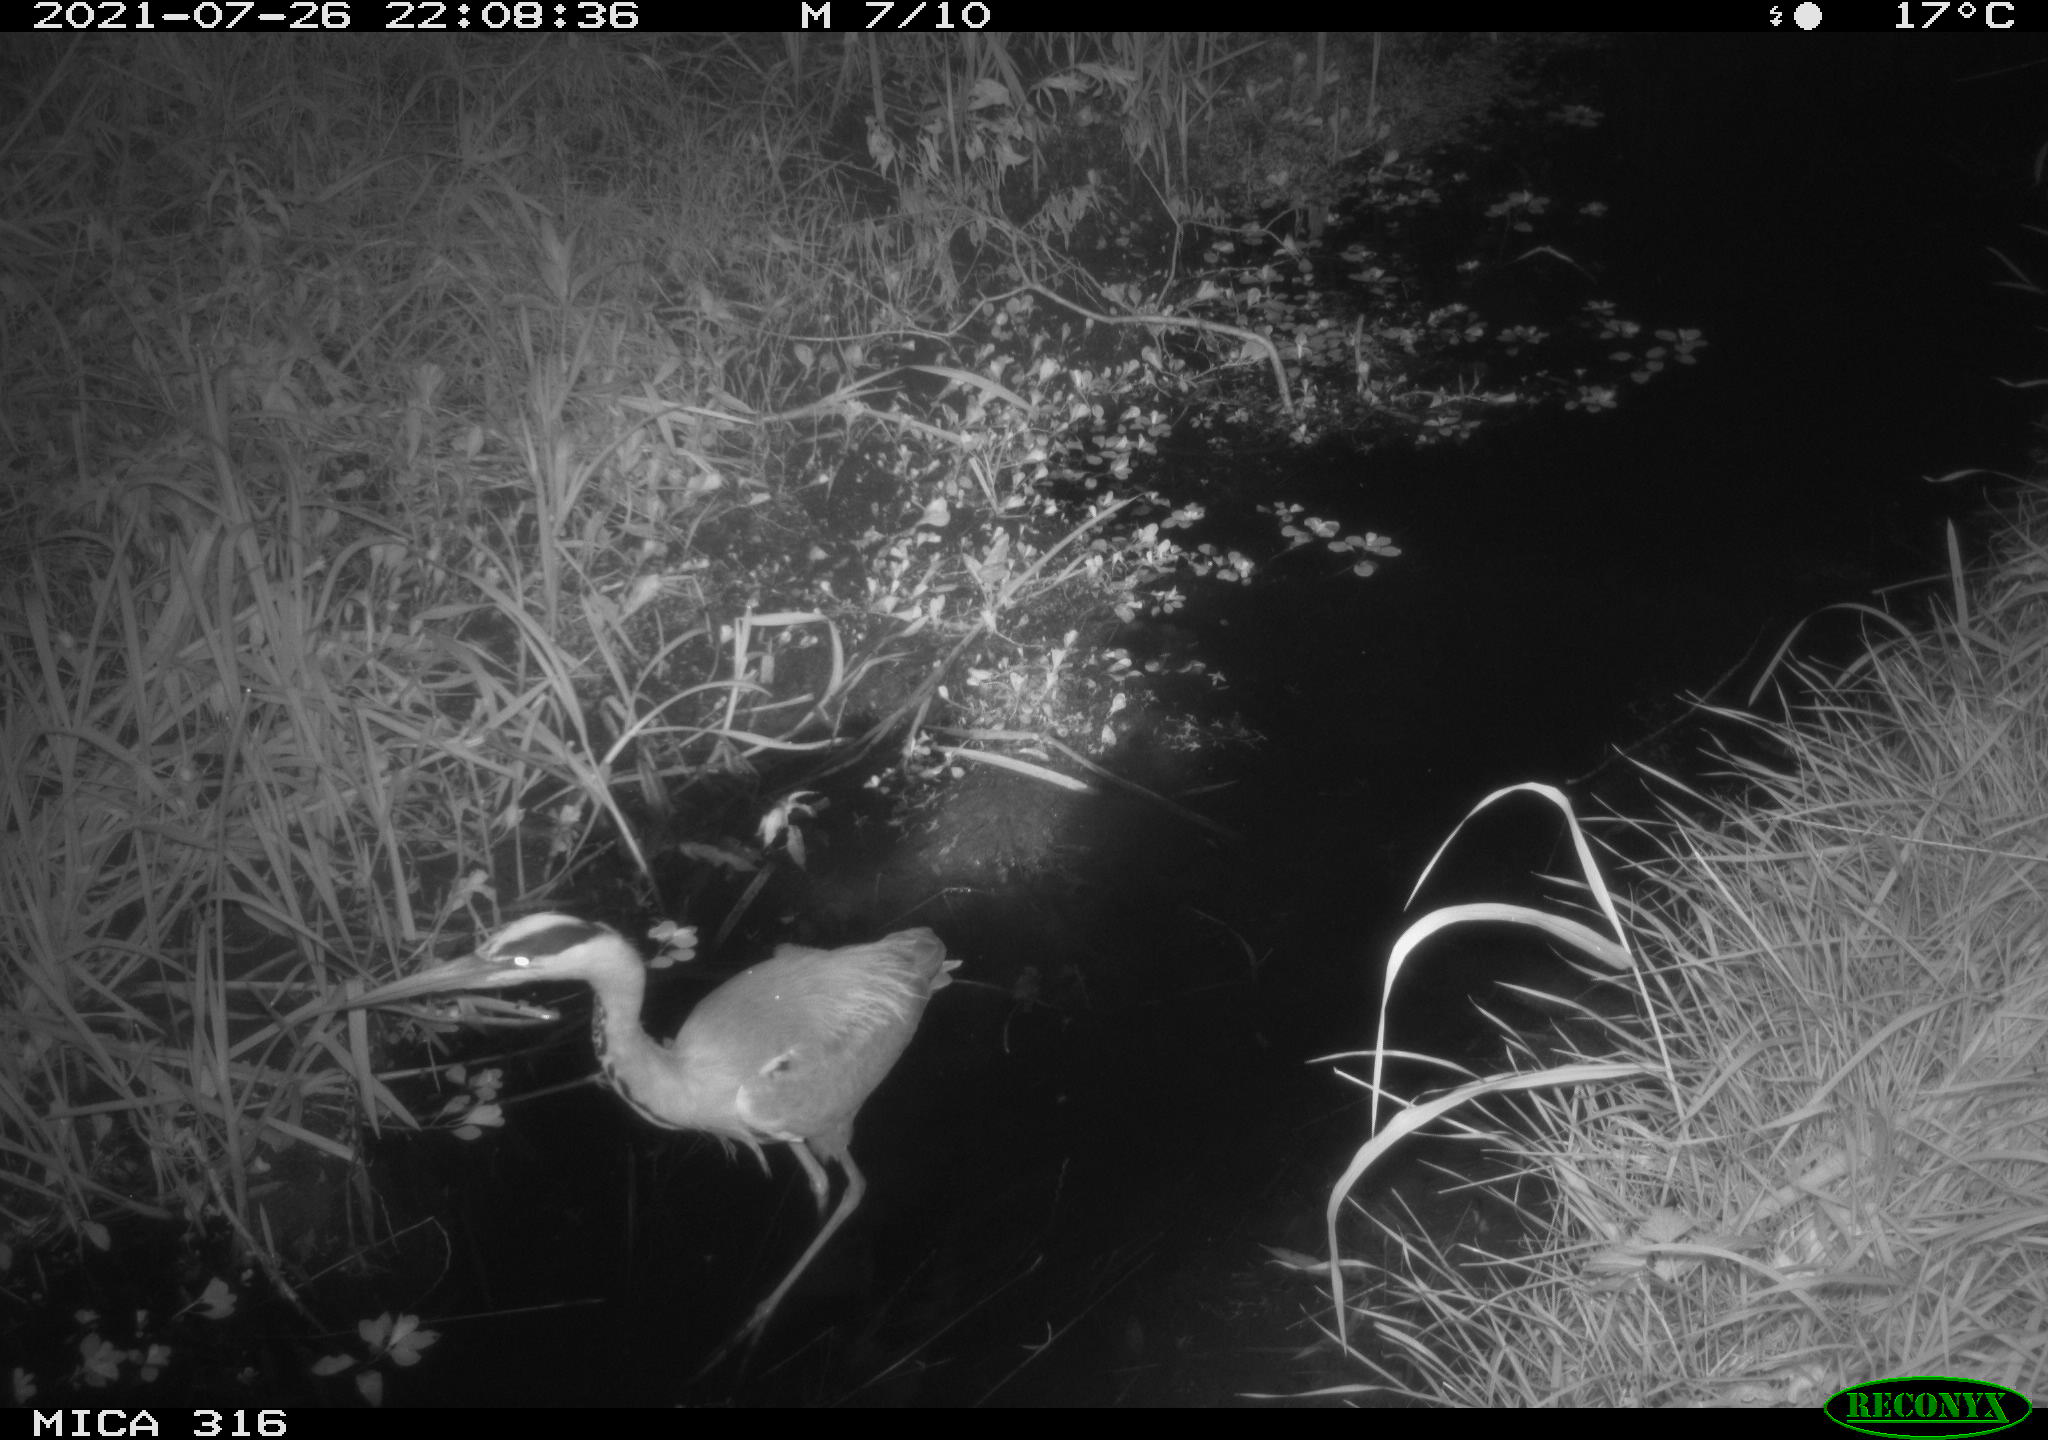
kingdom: Animalia
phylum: Chordata
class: Aves
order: Pelecaniformes
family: Ardeidae
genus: Ardea
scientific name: Ardea
